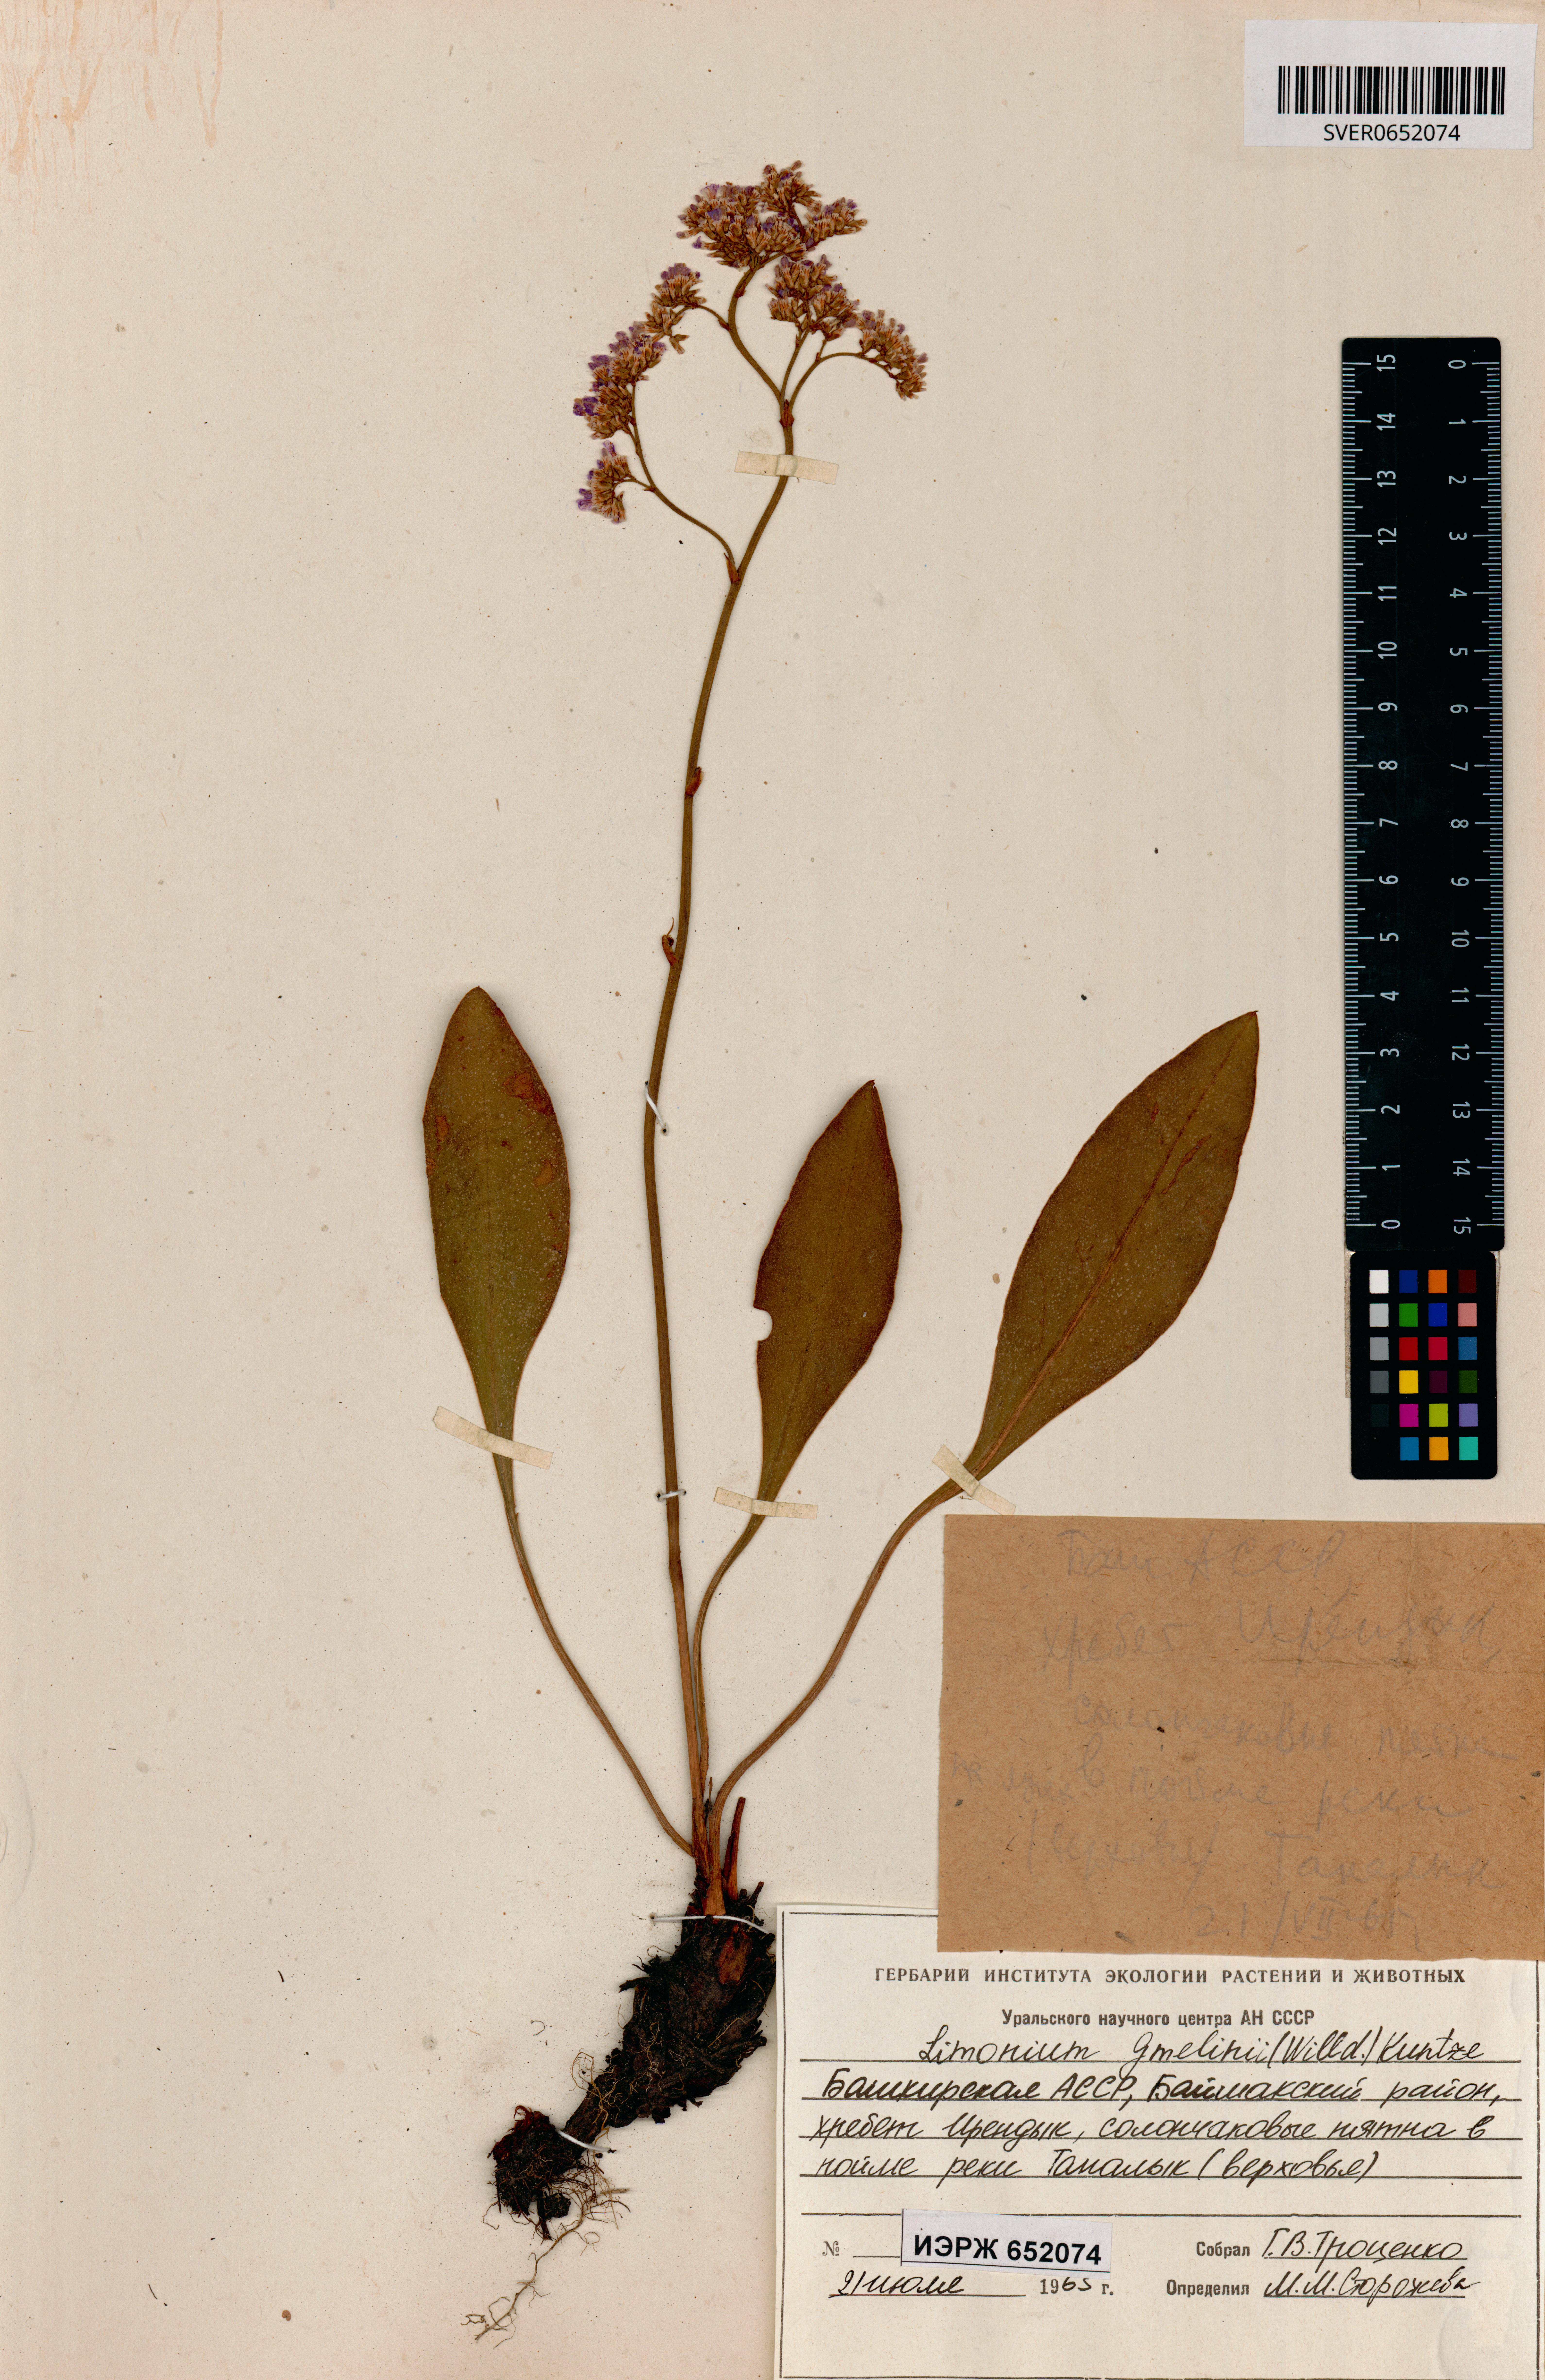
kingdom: Plantae
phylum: Tracheophyta
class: Magnoliopsida
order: Caryophyllales
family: Plumbaginaceae
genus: Limonium
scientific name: Limonium gmelini
